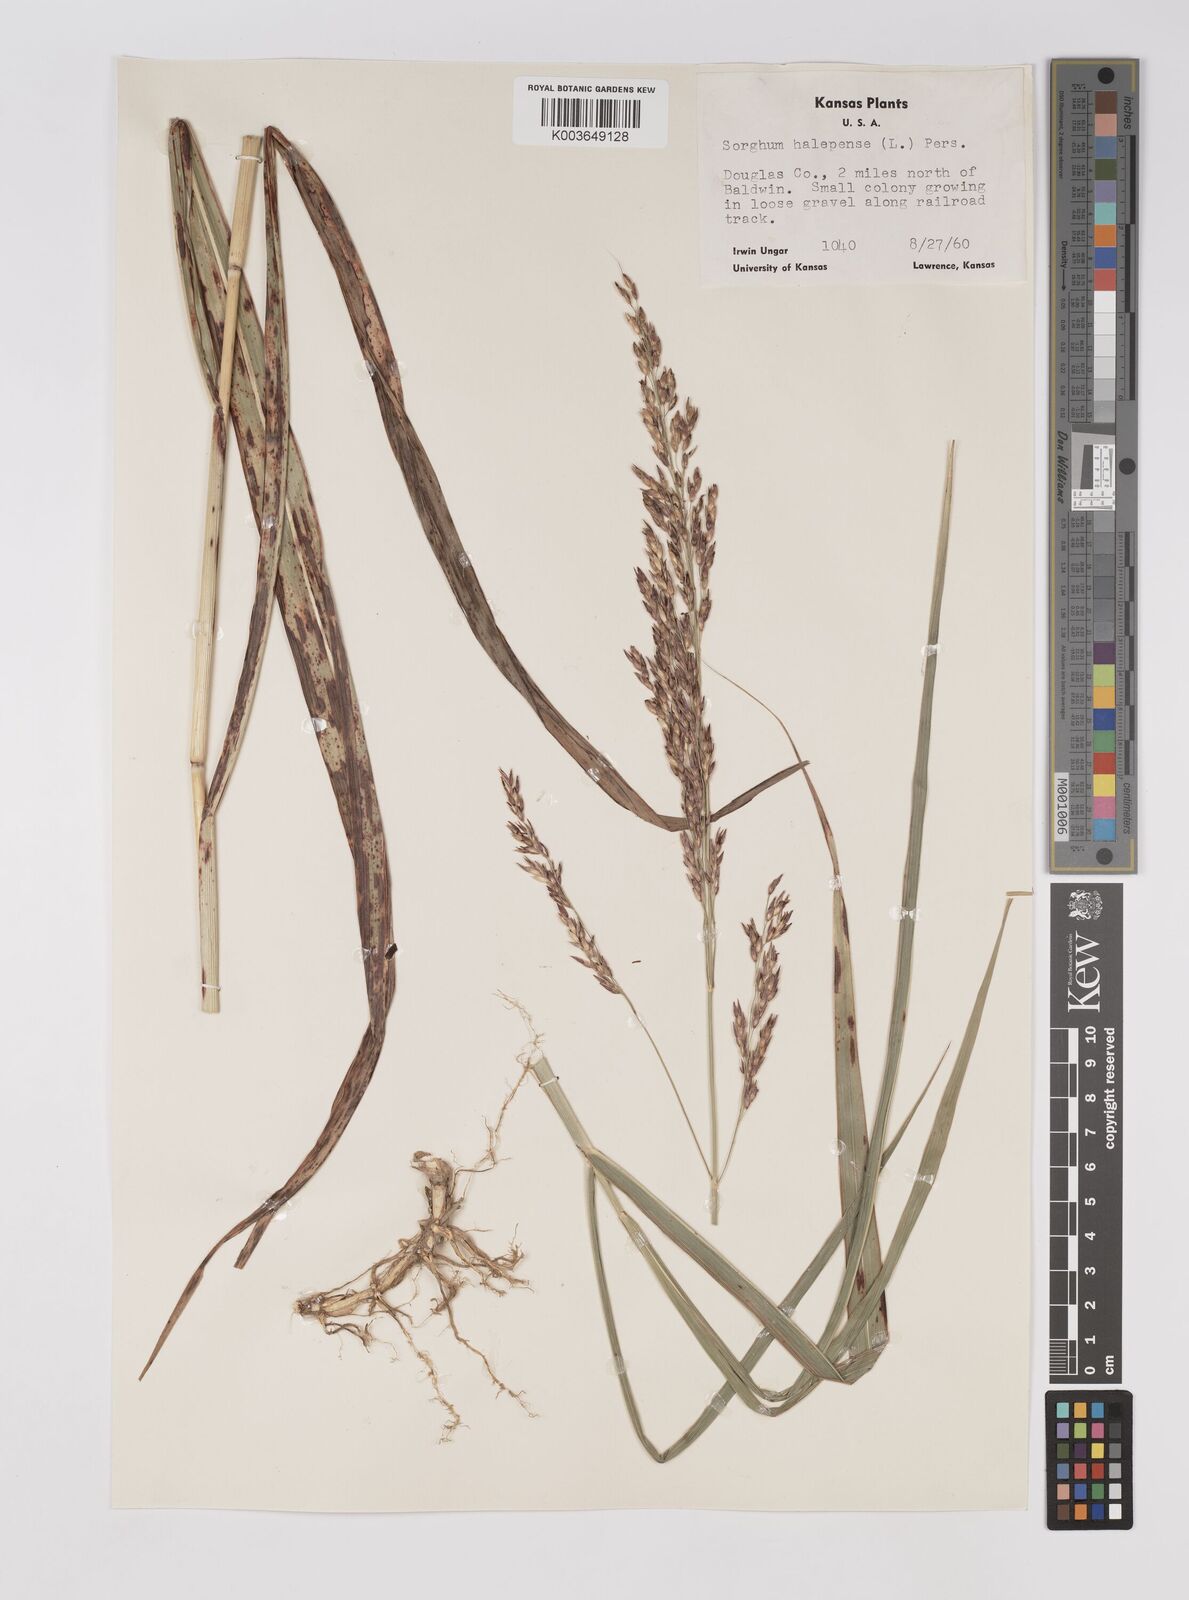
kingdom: Plantae
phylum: Tracheophyta
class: Liliopsida
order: Poales
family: Poaceae
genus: Sorghum
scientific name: Sorghum halepense
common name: Johnson-grass
